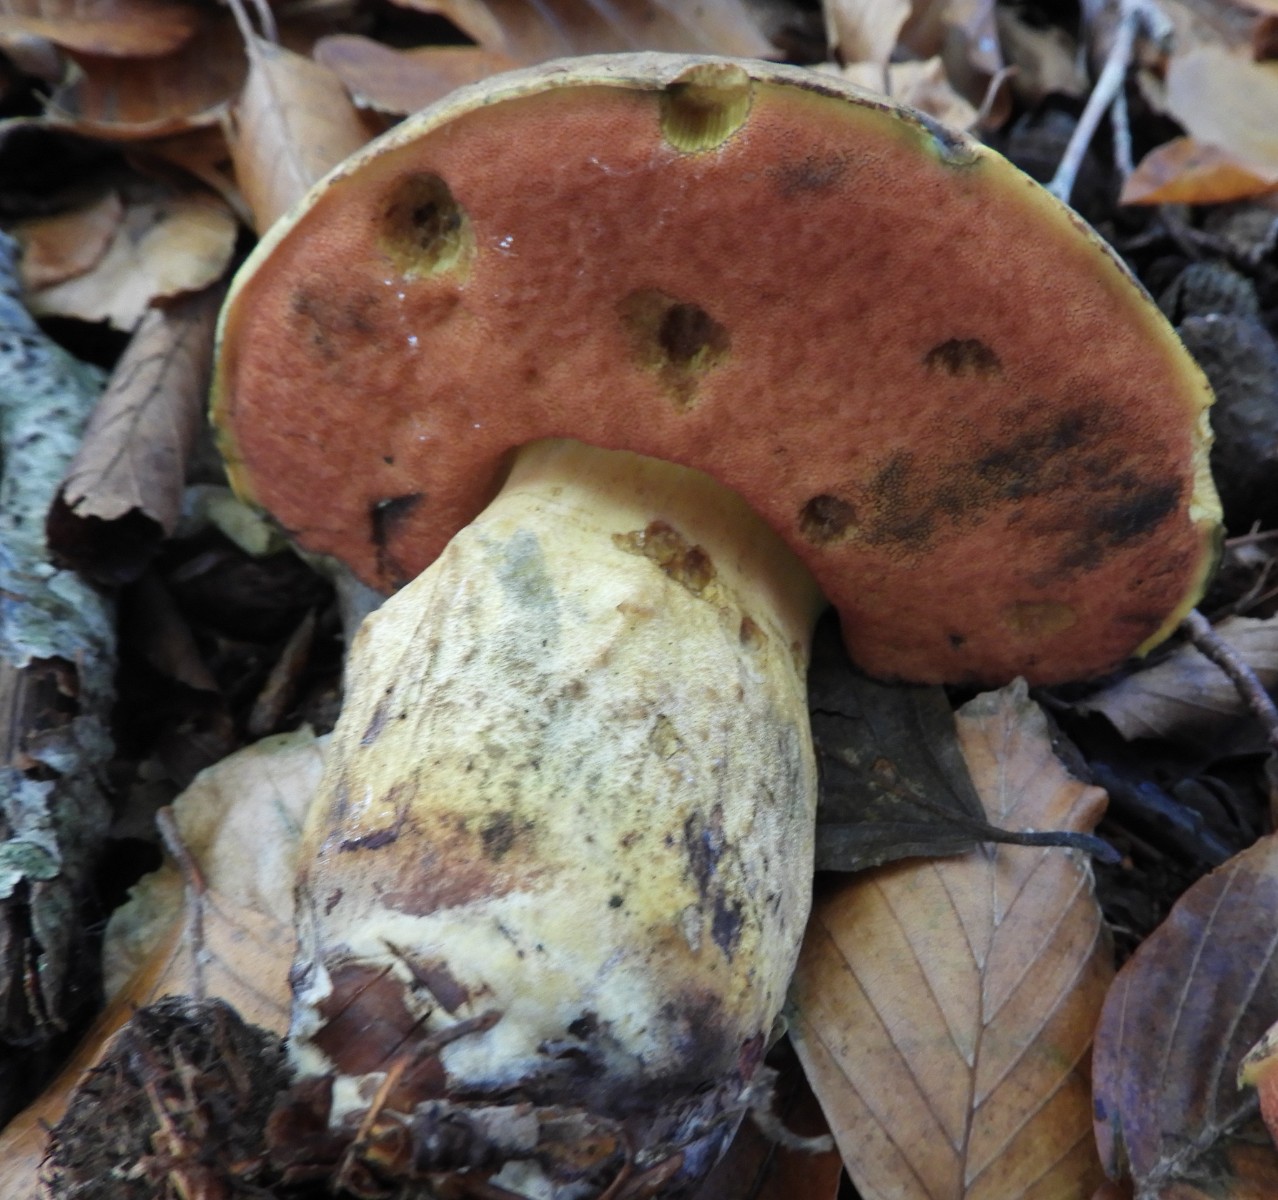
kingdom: Fungi
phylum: Basidiomycota
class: Agaricomycetes
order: Boletales
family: Boletaceae
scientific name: Boletaceae
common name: rørhatfamilien
